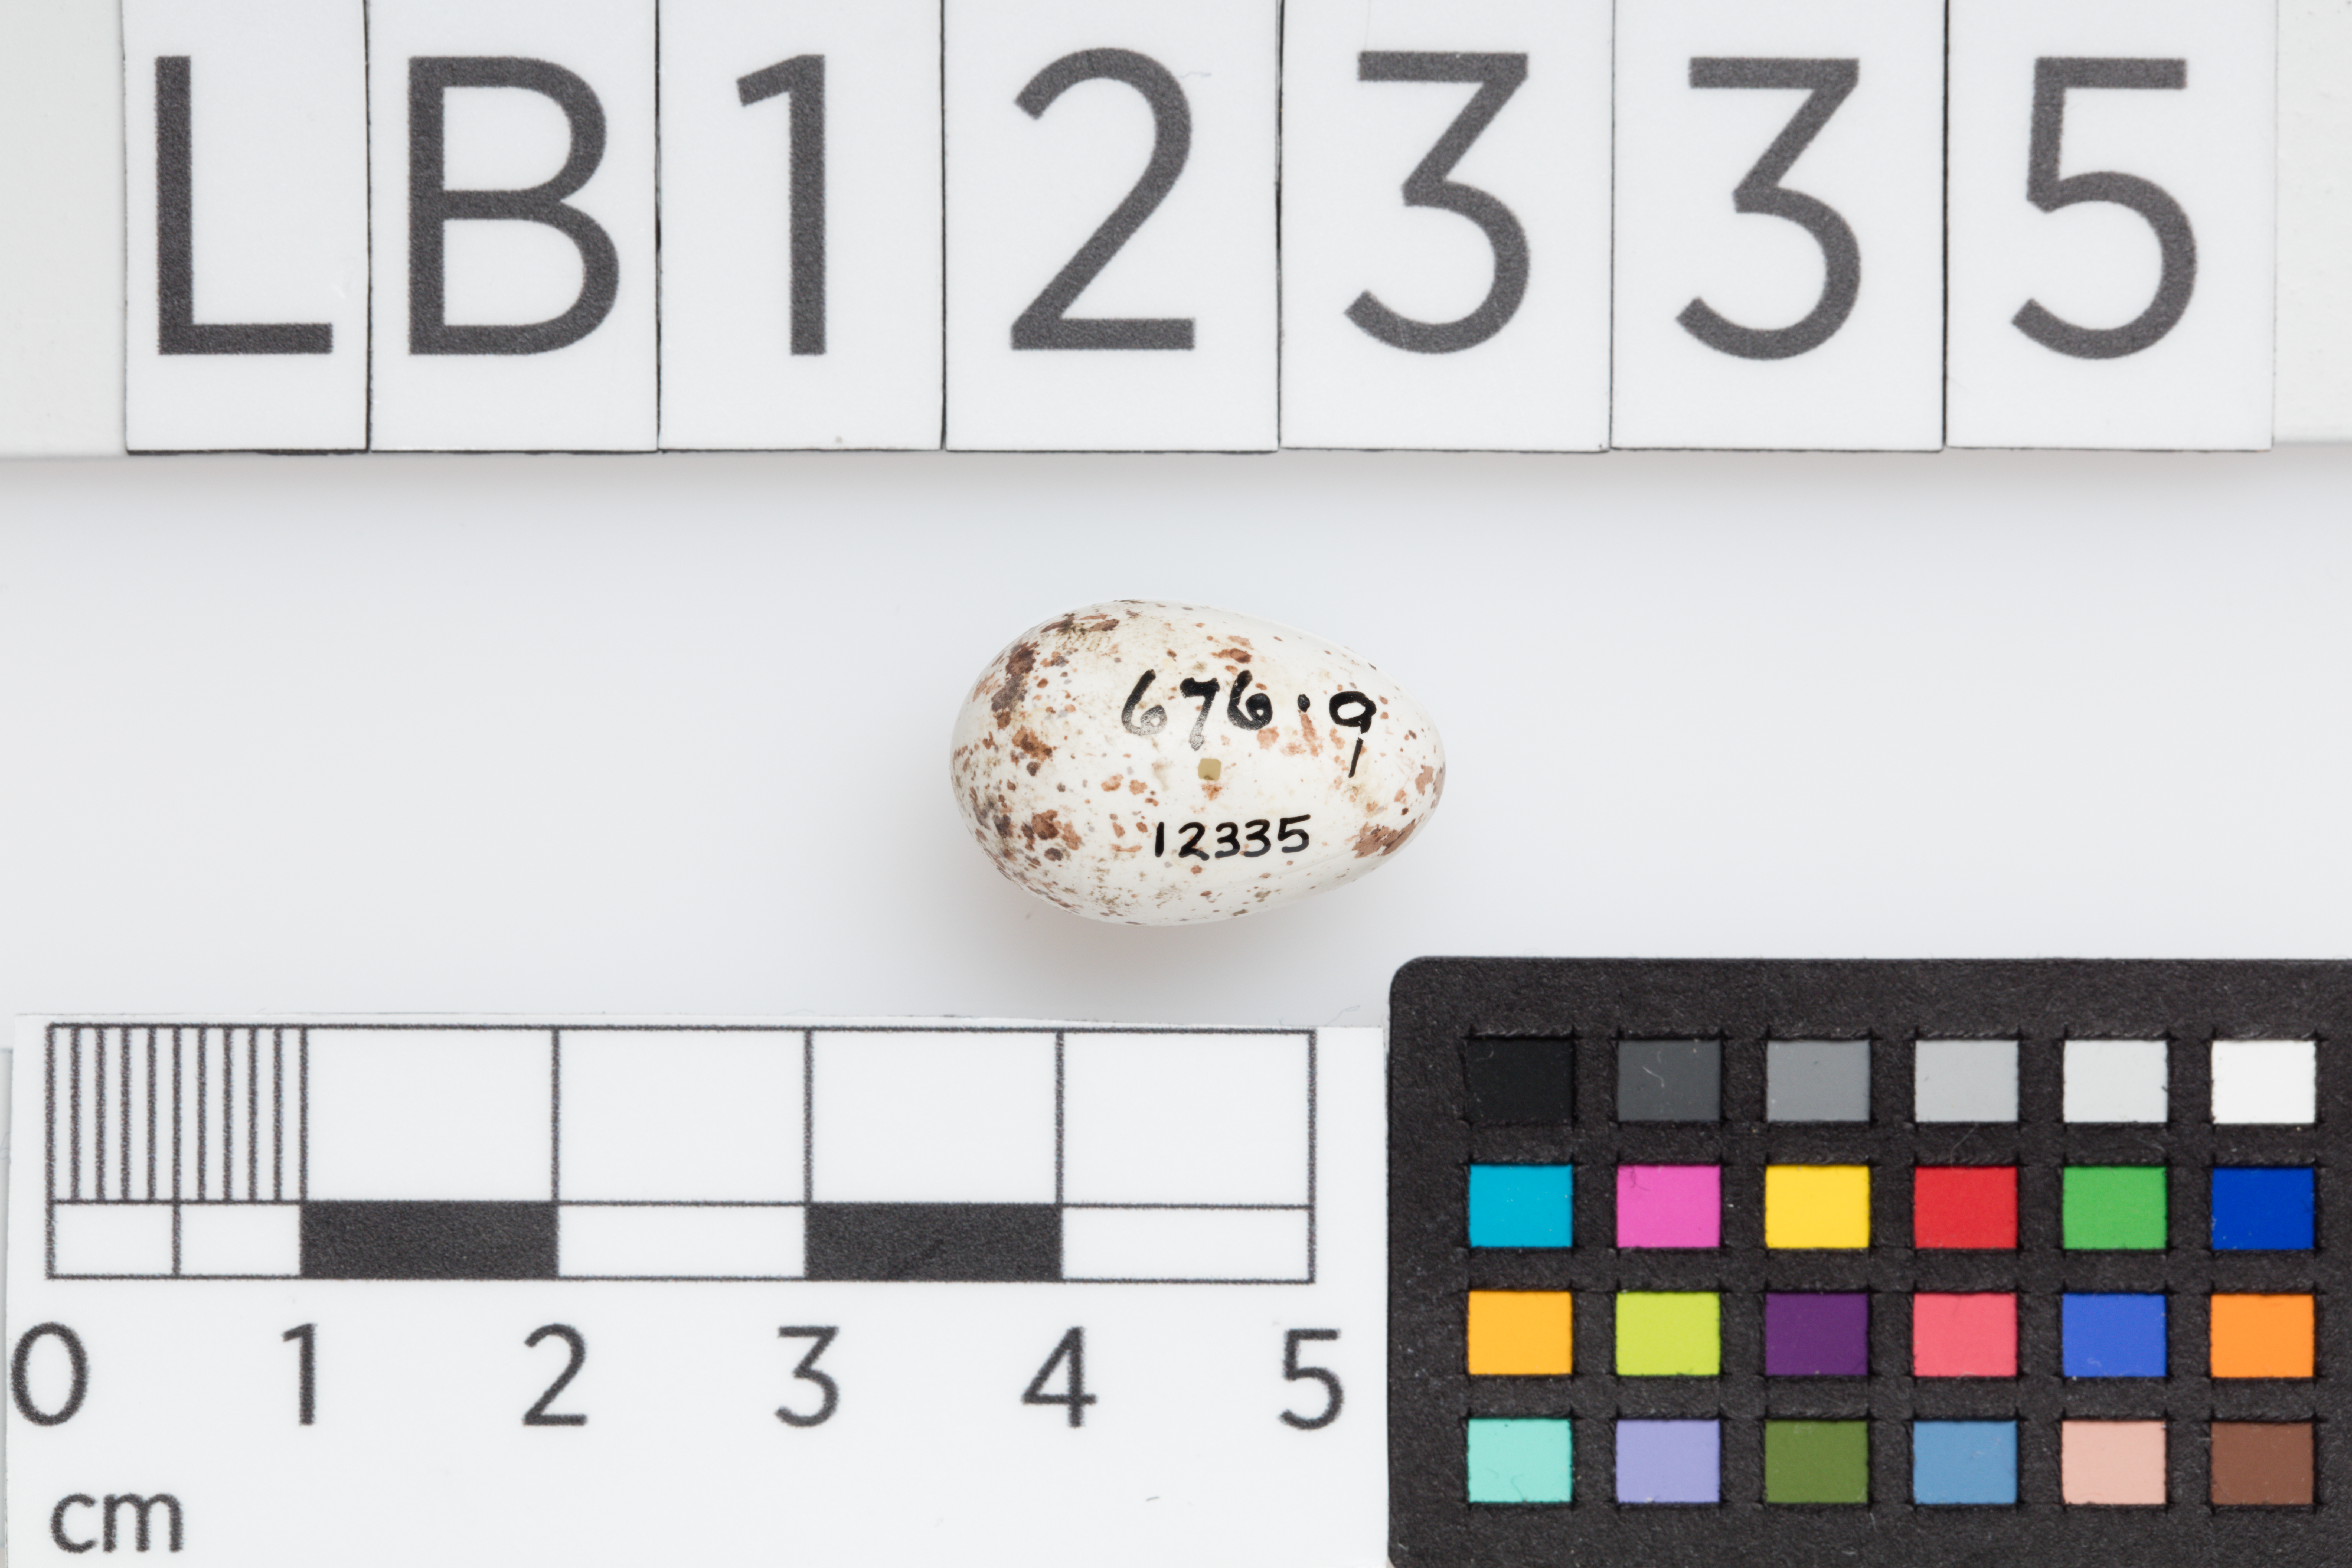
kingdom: Animalia
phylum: Chordata
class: Aves
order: Passeriformes
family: Hirundinidae
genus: Hirundo
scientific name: Hirundo rustica
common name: Barn swallow
